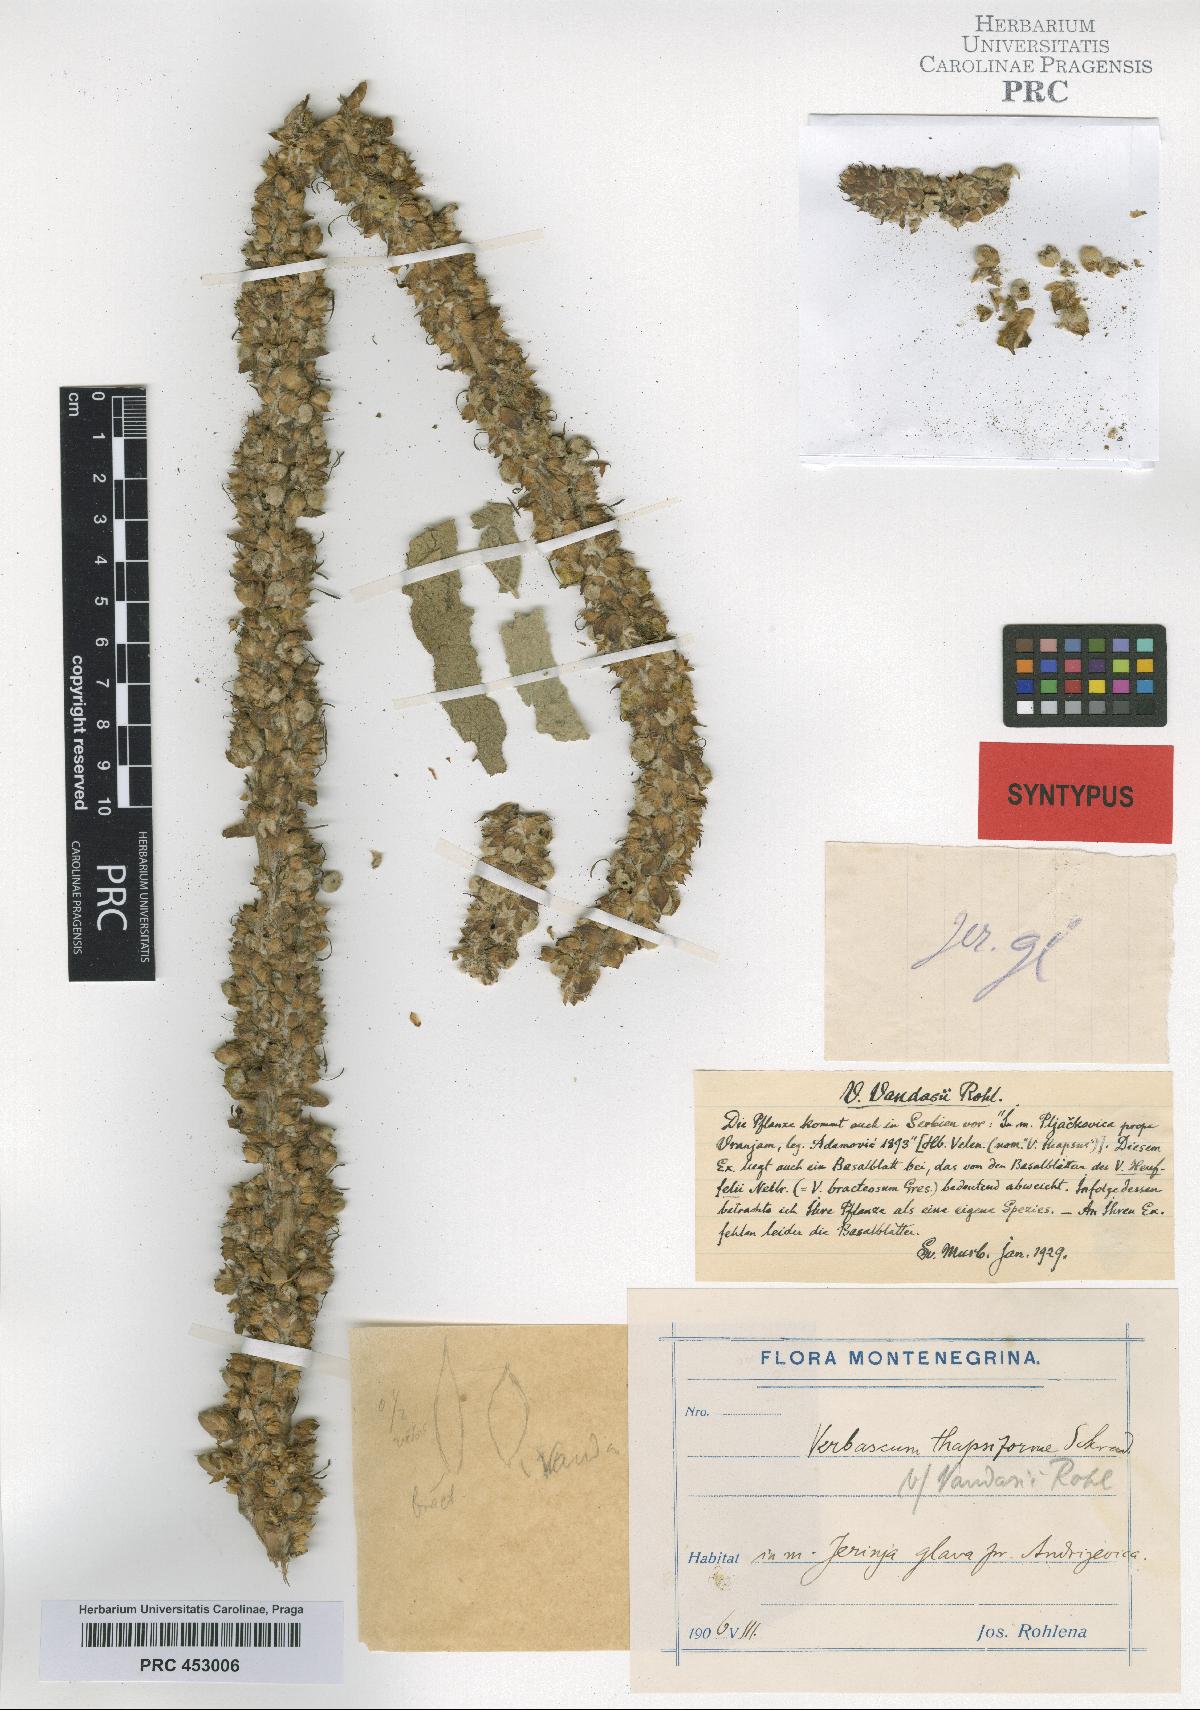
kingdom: Plantae
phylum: Tracheophyta
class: Magnoliopsida
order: Lamiales
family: Scrophulariaceae
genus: Verbascum
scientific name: Verbascum vandasii
